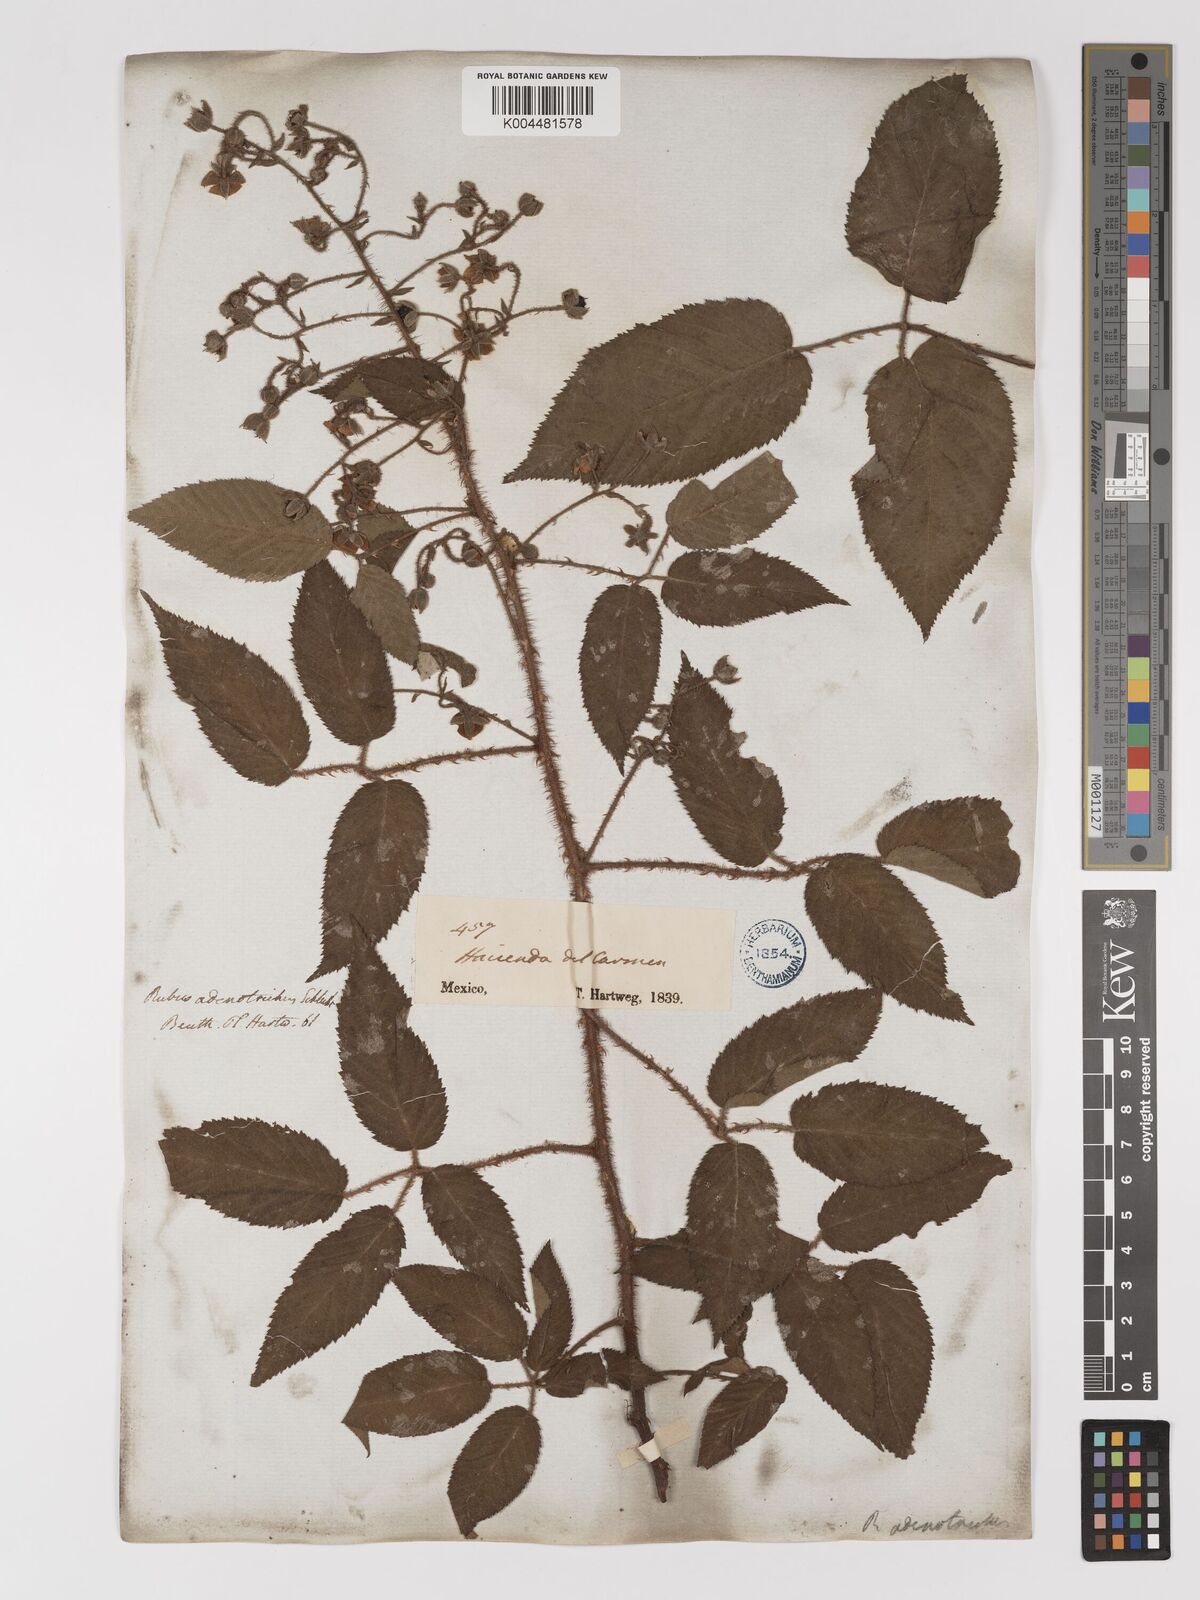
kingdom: Plantae
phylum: Tracheophyta
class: Magnoliopsida
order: Rosales
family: Rosaceae
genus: Rubus
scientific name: Rubus adenotrichos
